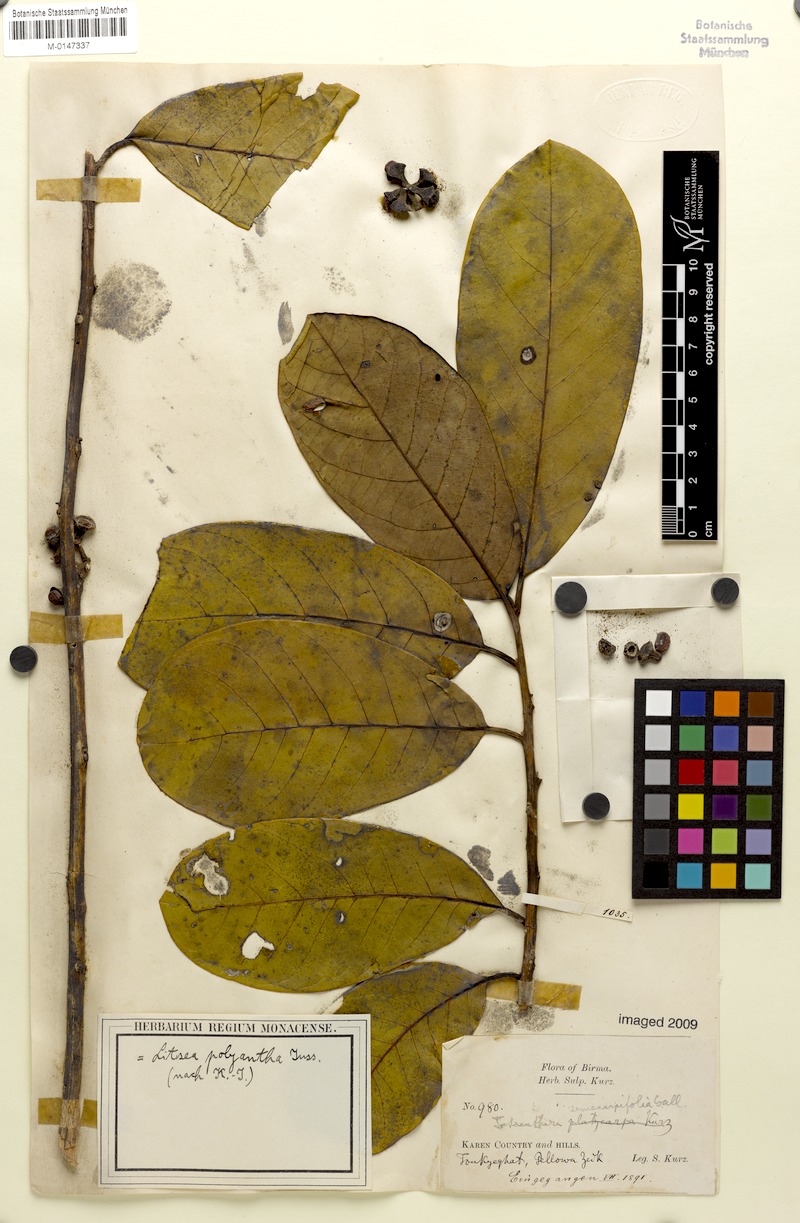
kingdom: Plantae
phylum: Tracheophyta
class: Magnoliopsida
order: Laurales
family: Lauraceae
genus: Litsea
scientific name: Litsea monopetala
